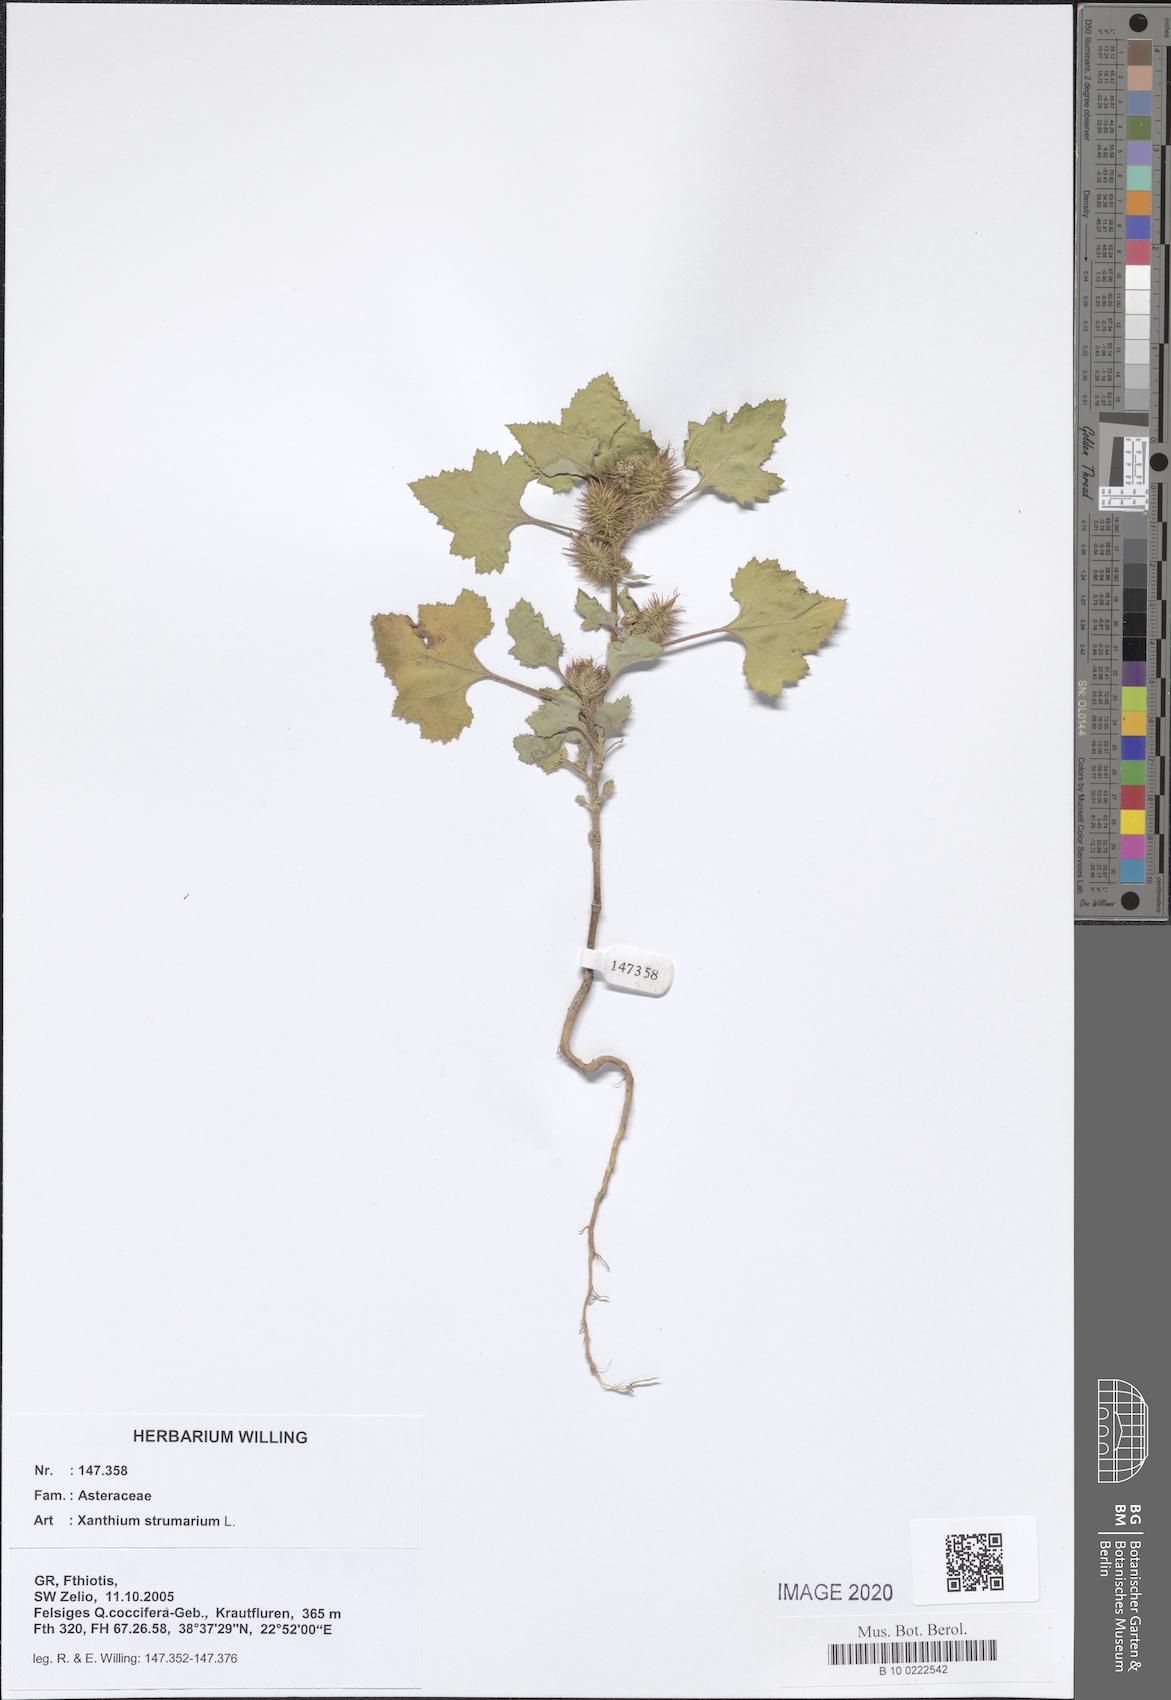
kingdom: Plantae
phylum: Tracheophyta
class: Magnoliopsida
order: Asterales
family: Asteraceae
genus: Xanthium
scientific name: Xanthium strumarium
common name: Rough cocklebur
